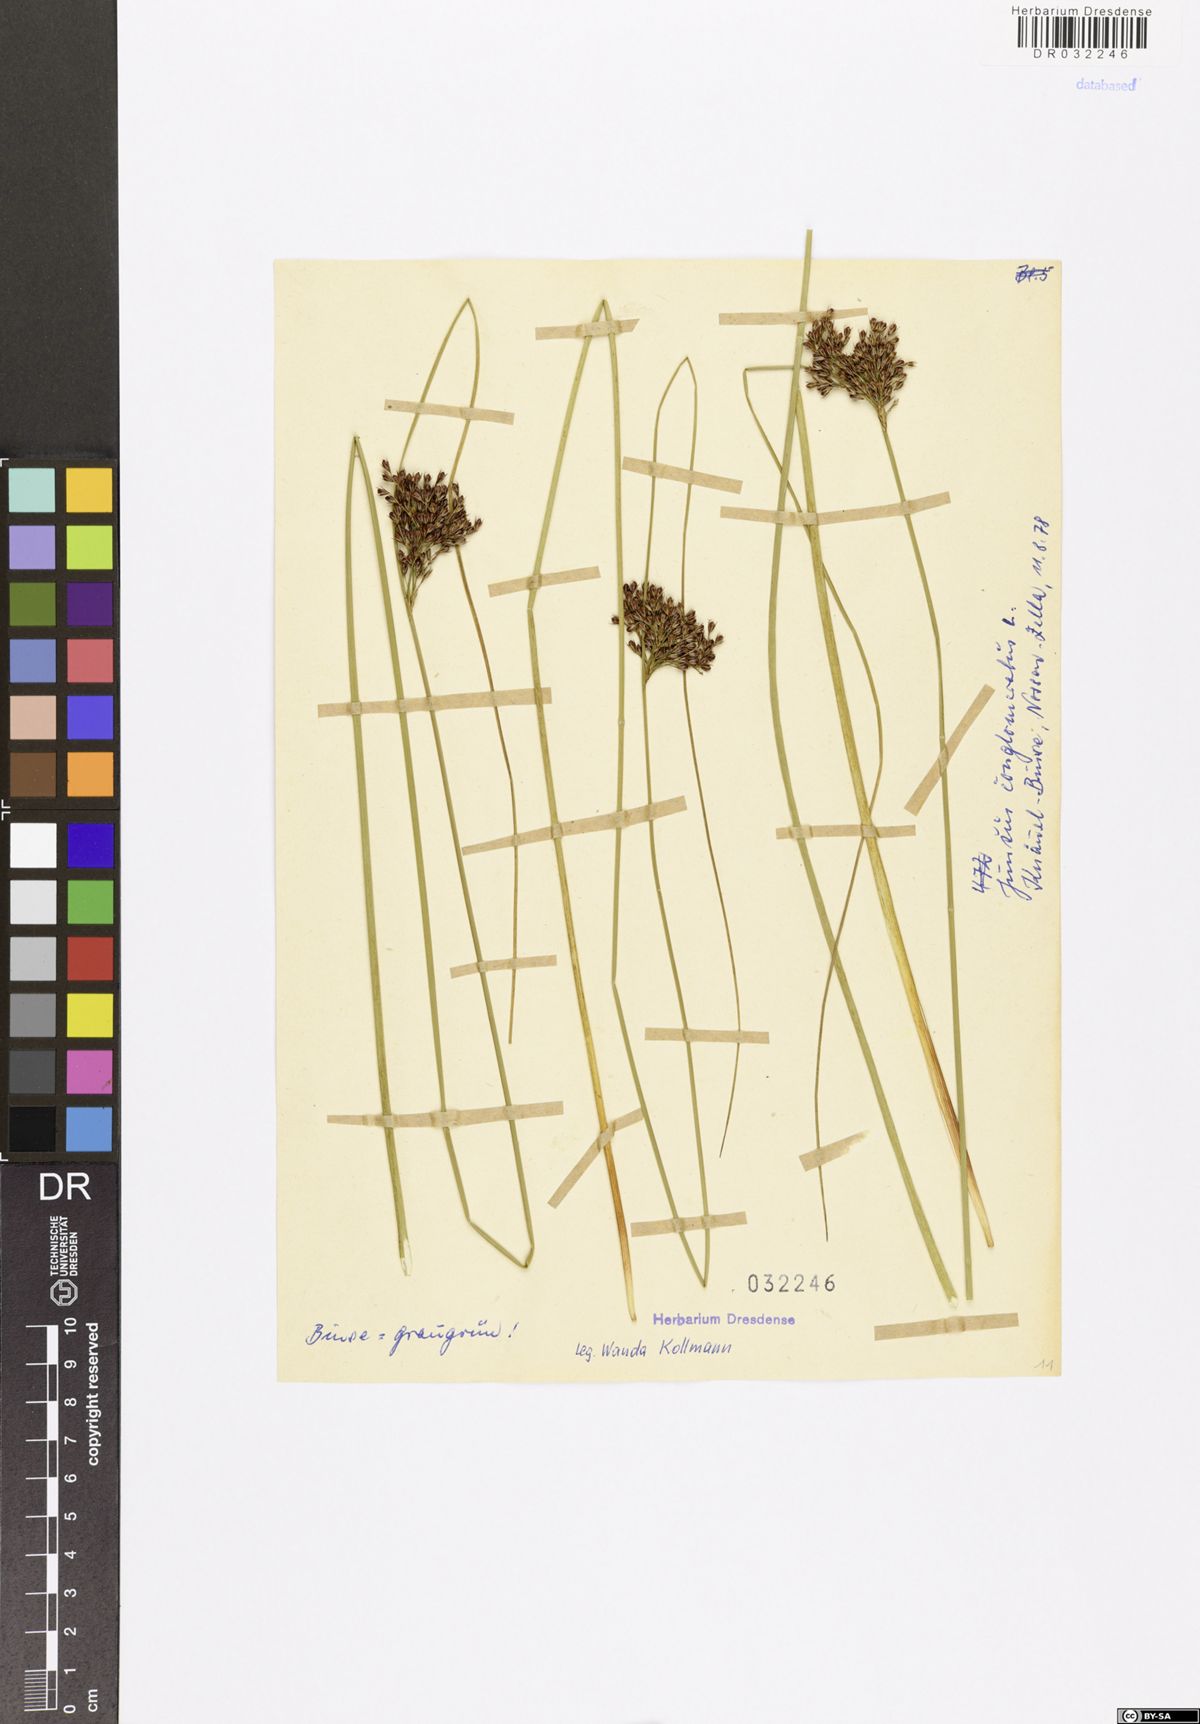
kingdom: Plantae
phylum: Tracheophyta
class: Liliopsida
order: Poales
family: Juncaceae
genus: Juncus
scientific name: Juncus conglomeratus
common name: Compact rush
